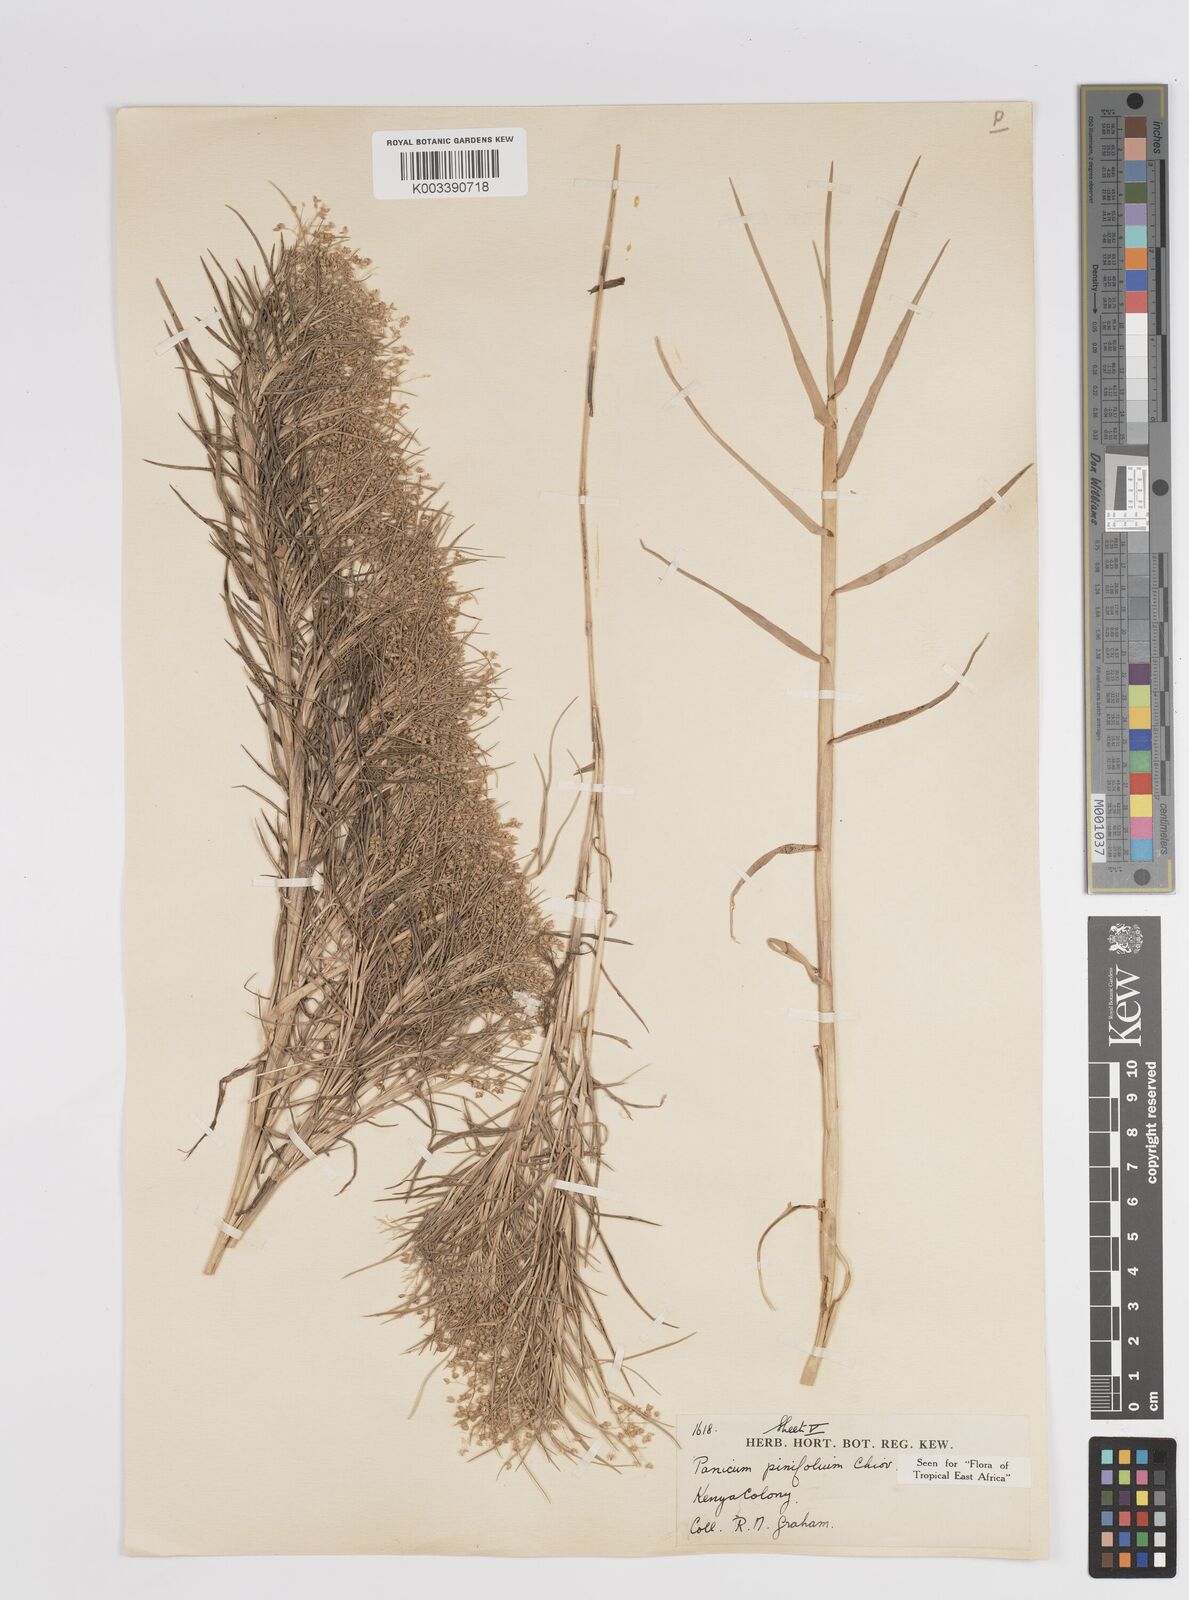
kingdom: Plantae
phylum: Tracheophyta
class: Liliopsida
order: Poales
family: Poaceae
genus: Panicum
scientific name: Panicum pinifolium
